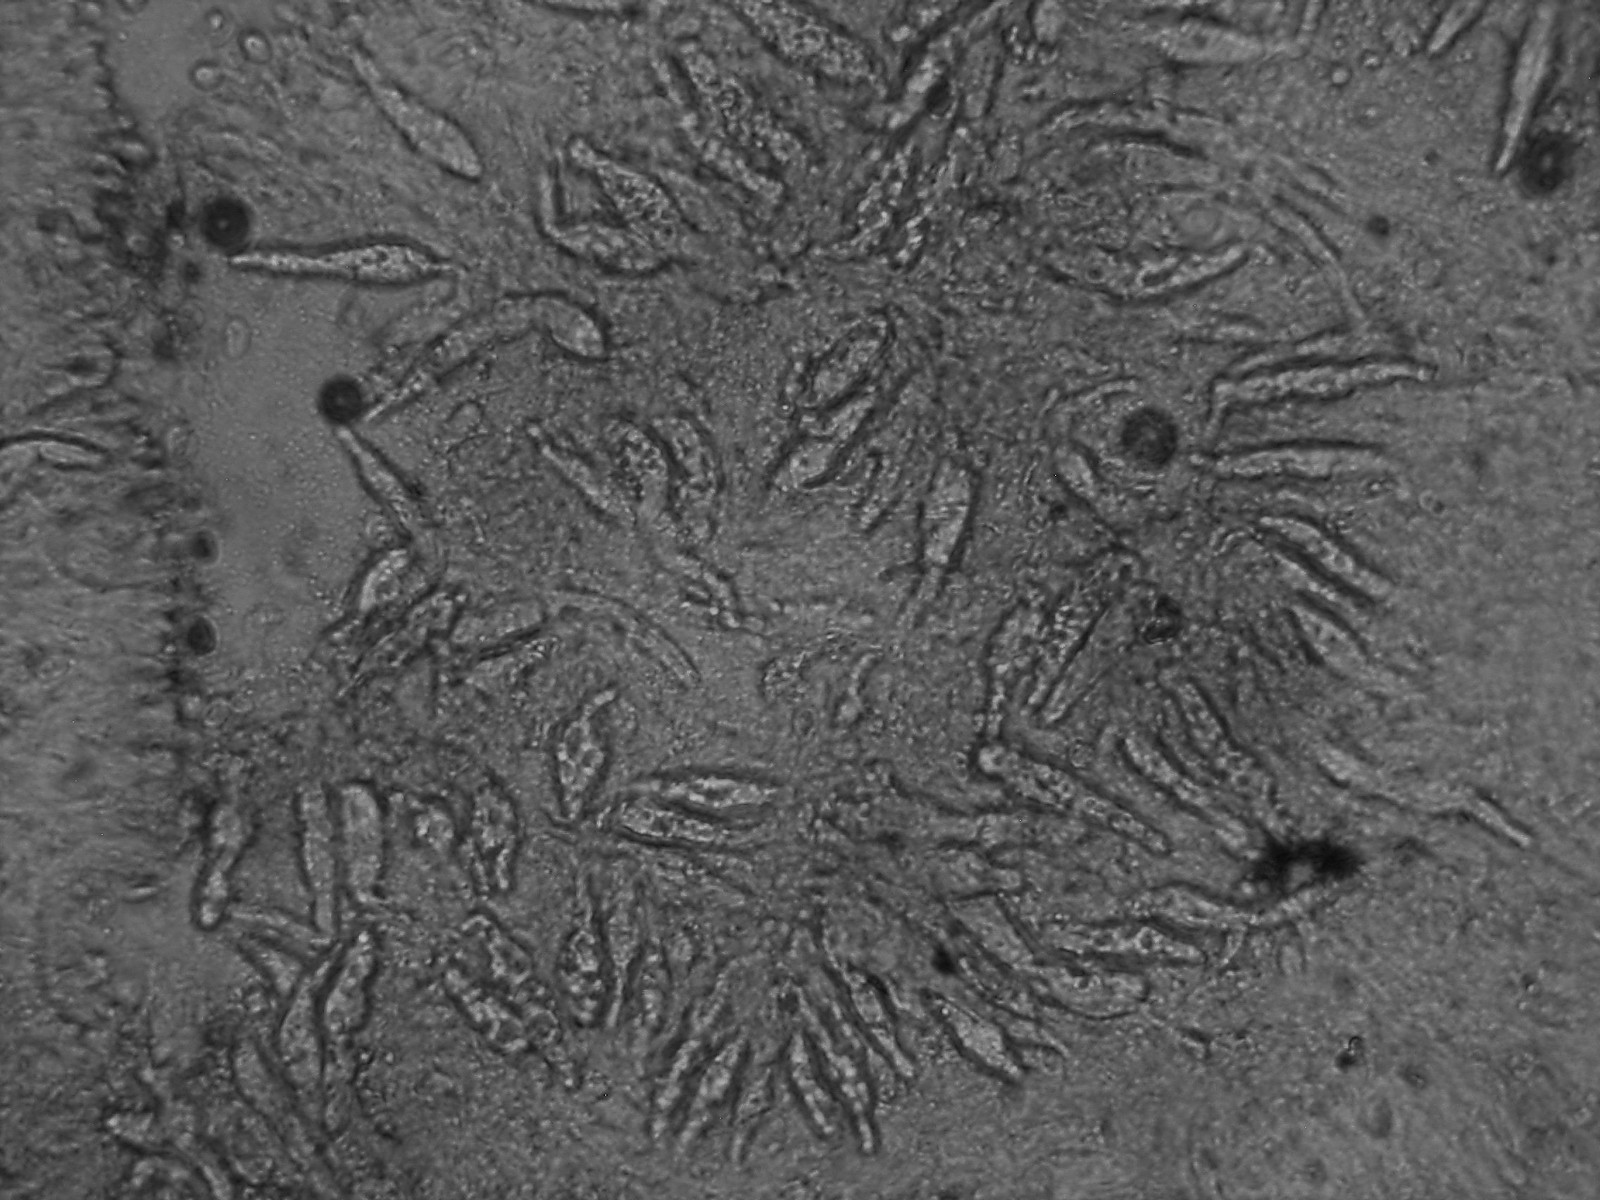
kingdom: Fungi
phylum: Basidiomycota
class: Agaricomycetes
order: Russulales
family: Peniophoraceae
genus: Gloiothele
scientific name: Gloiothele lactescens
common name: bitter olieskind
